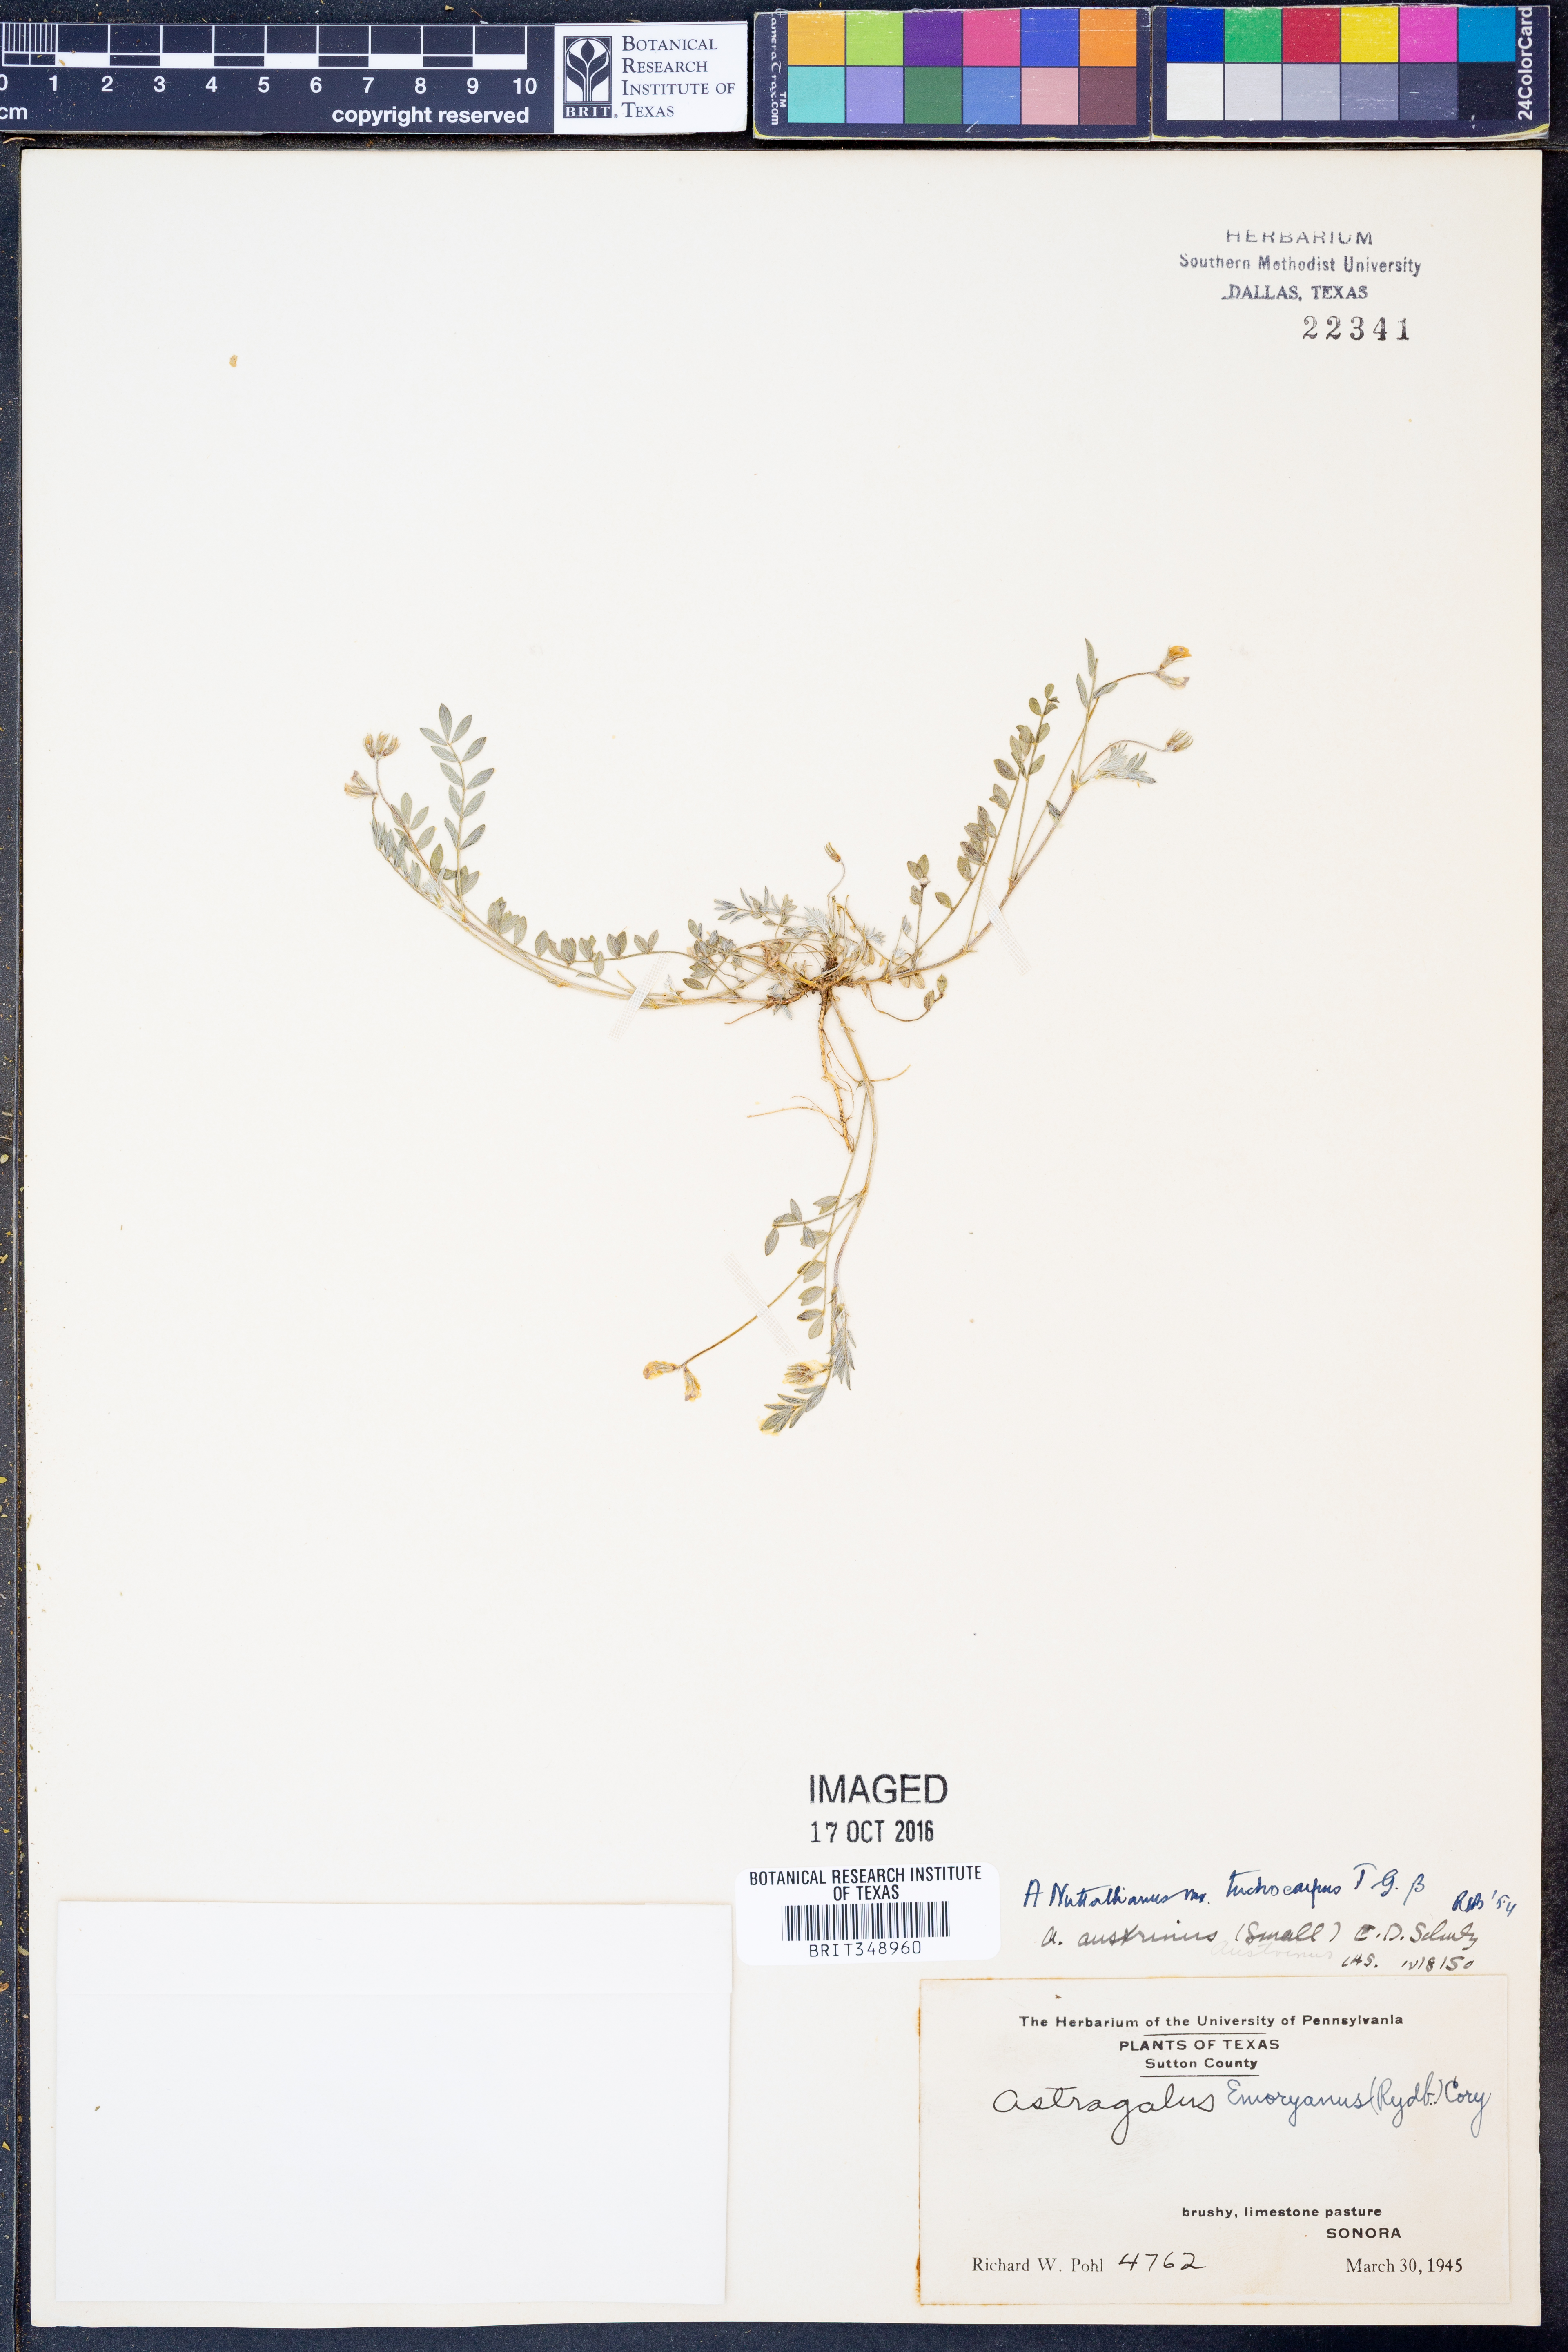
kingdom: Plantae
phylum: Tracheophyta
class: Magnoliopsida
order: Fabales
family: Fabaceae
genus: Astragalus
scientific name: Astragalus nuttallianus
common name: Smallflowered milkvetch
